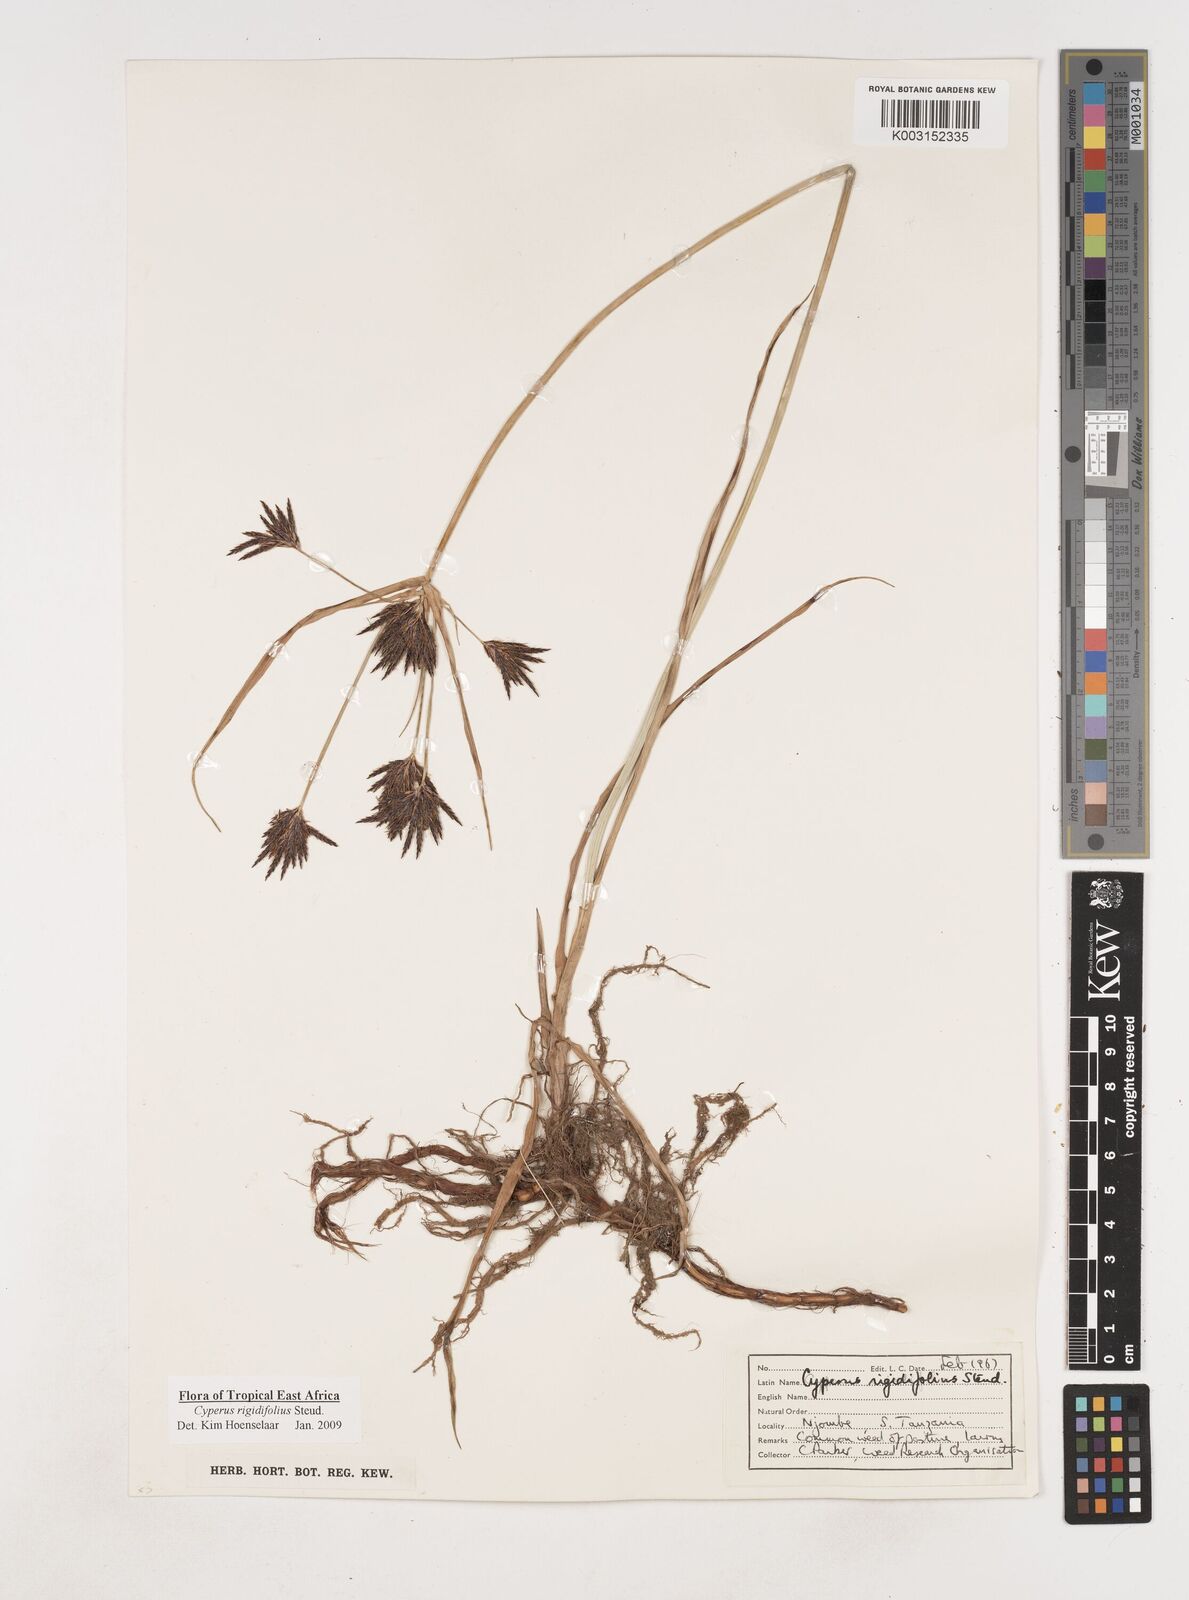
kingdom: Plantae
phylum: Tracheophyta
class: Liliopsida
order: Poales
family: Cyperaceae
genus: Cyperus
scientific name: Cyperus rigidifolius
